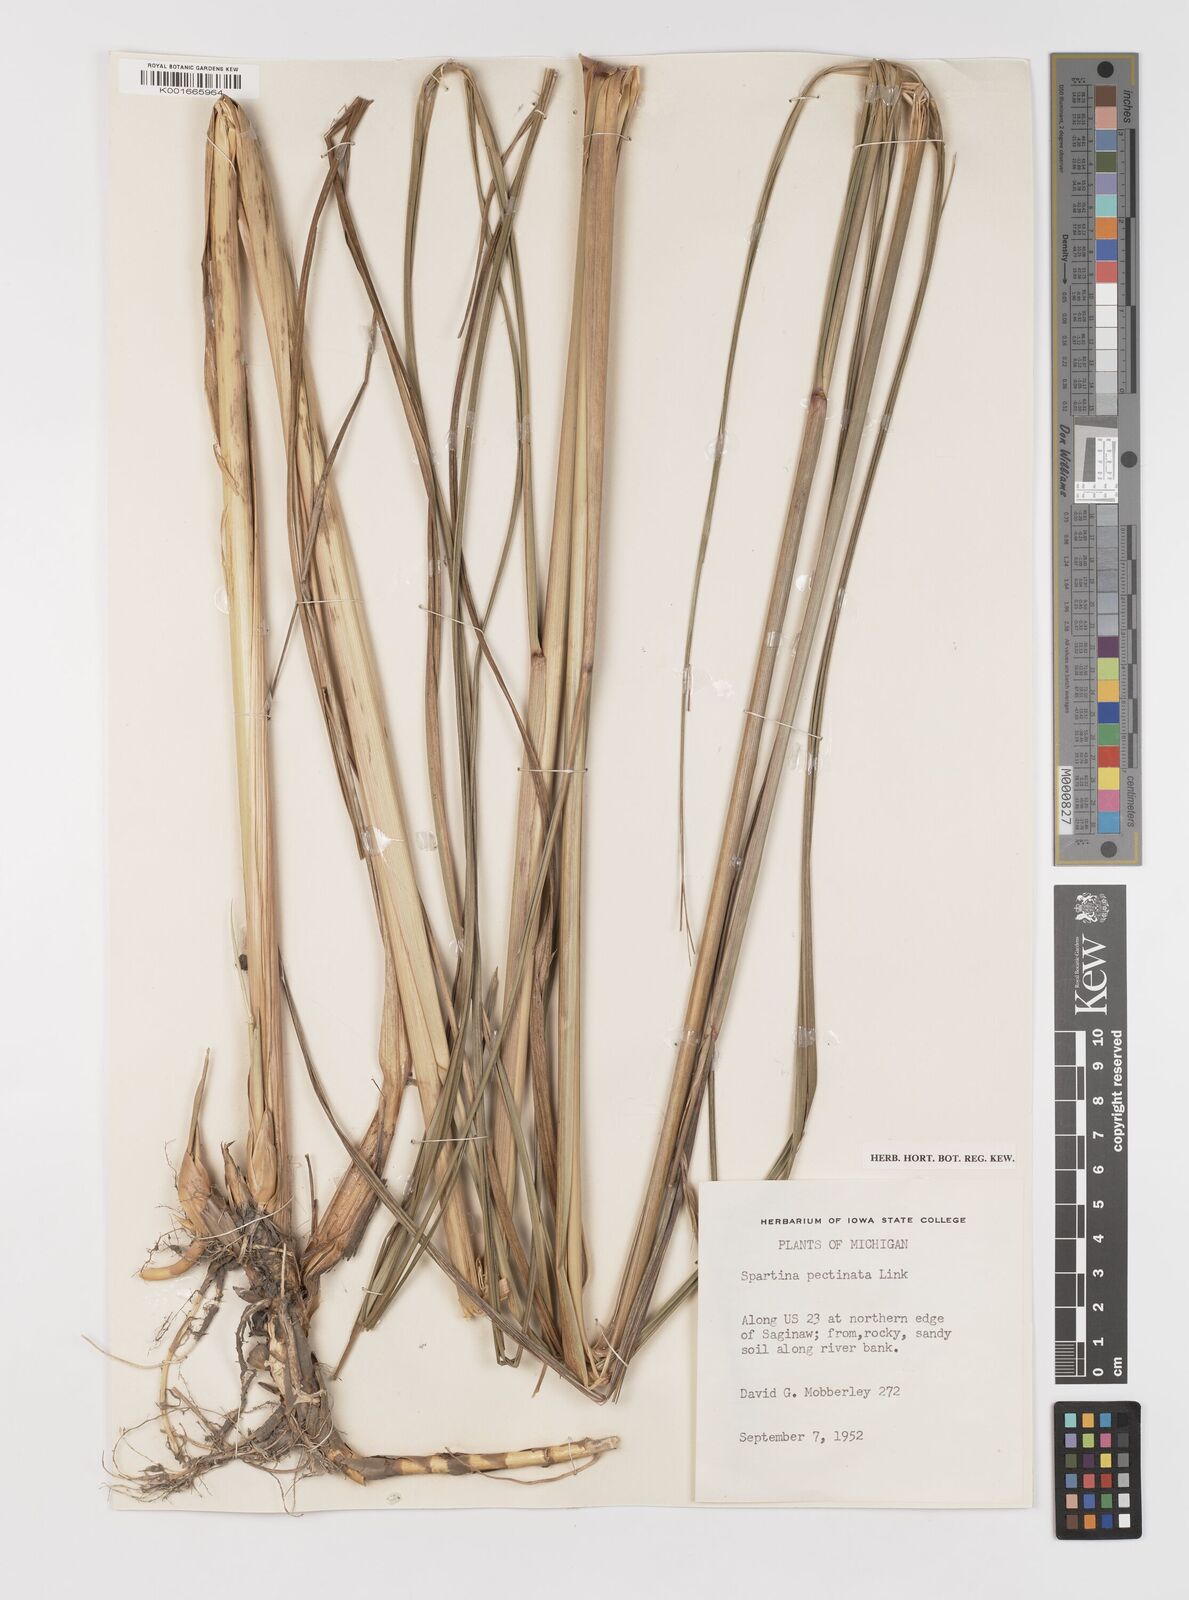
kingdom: Plantae
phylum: Tracheophyta
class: Liliopsida
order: Poales
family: Poaceae
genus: Sporobolus
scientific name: Sporobolus michauxianus
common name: Freshwater cordgrass
